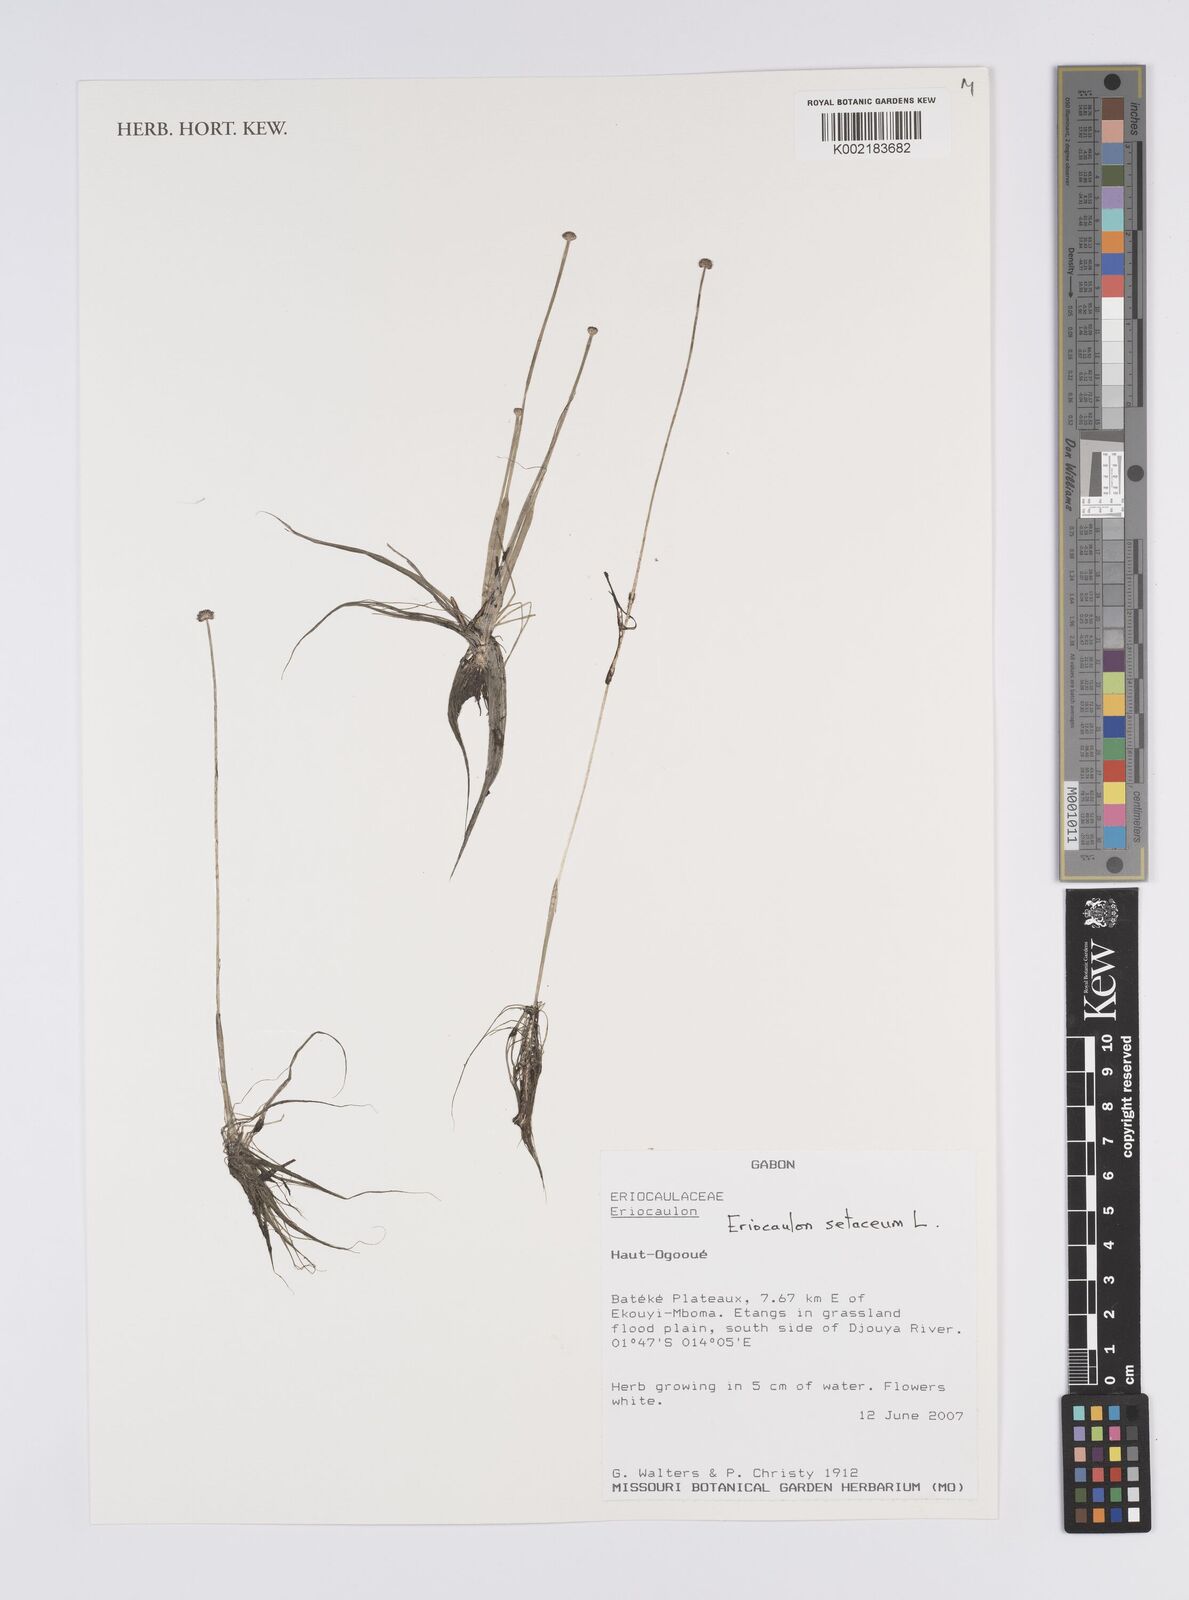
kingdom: Plantae
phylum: Tracheophyta
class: Liliopsida
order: Poales
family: Eriocaulaceae
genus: Eriocaulon
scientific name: Eriocaulon setaceum
